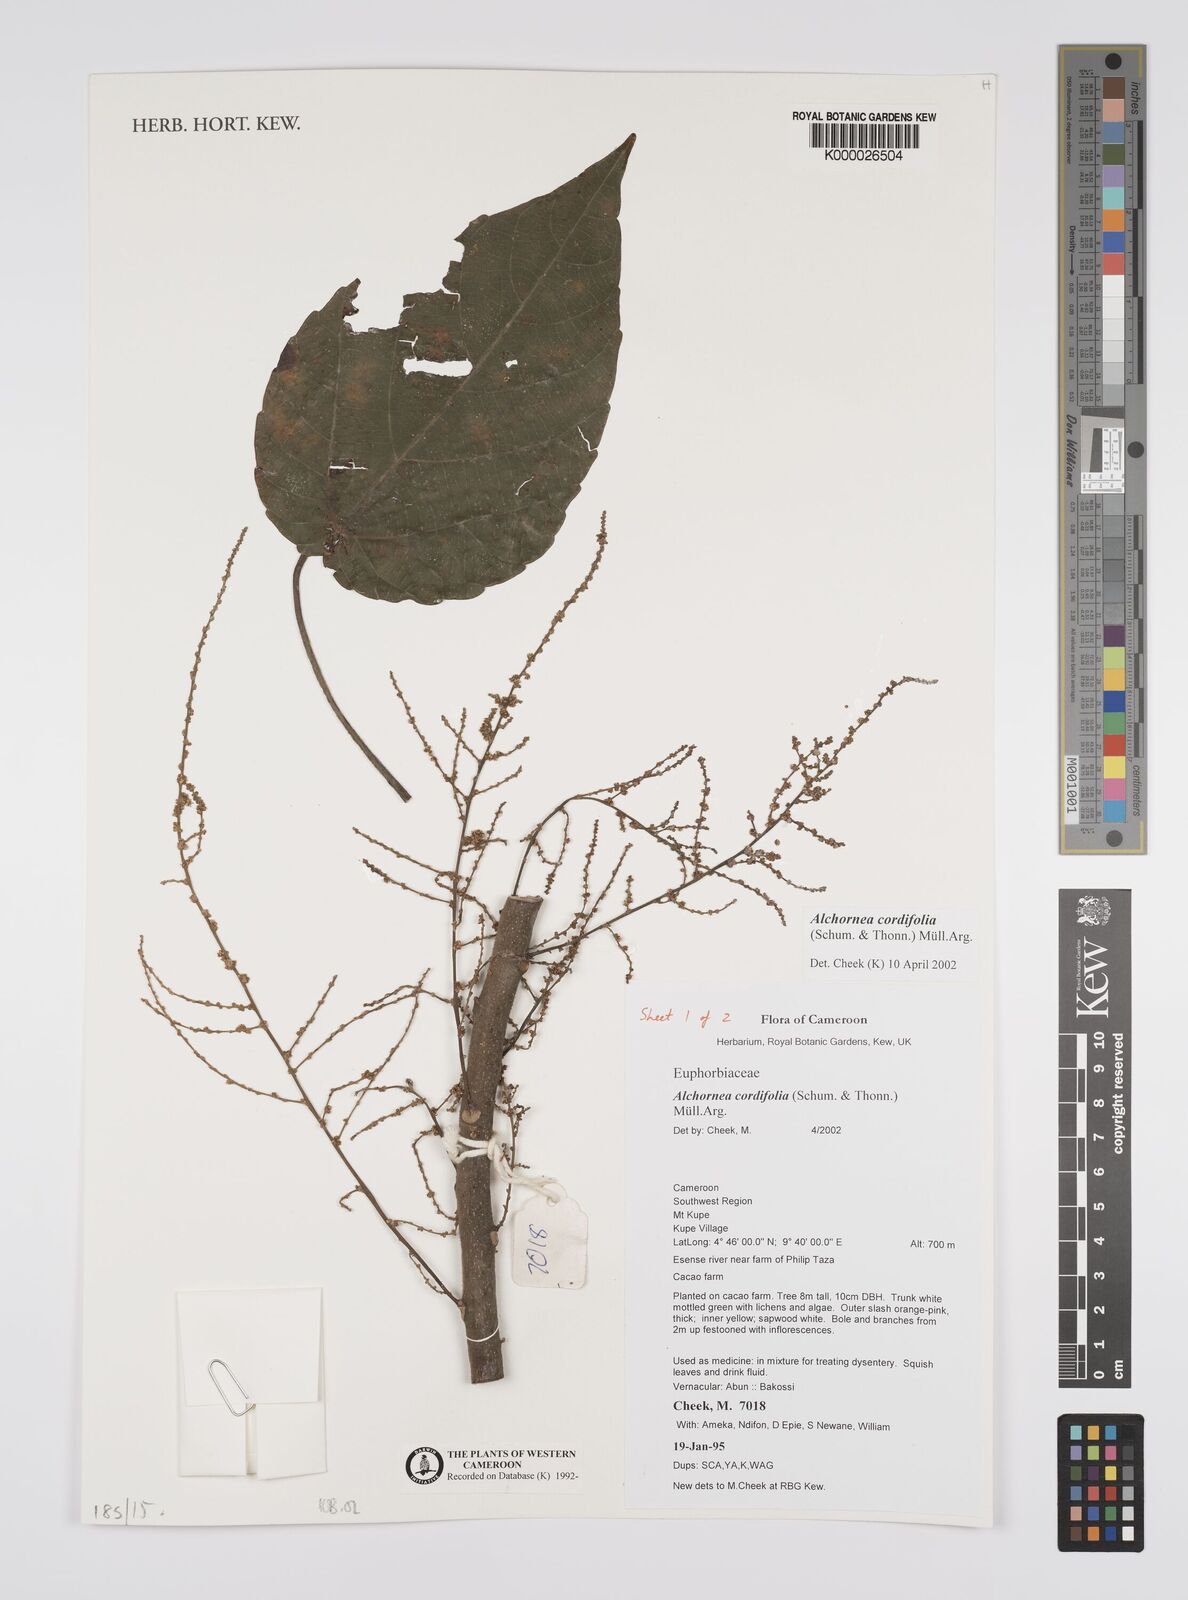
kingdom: Plantae
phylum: Tracheophyta
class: Magnoliopsida
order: Malpighiales
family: Euphorbiaceae
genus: Alchornea
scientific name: Alchornea
